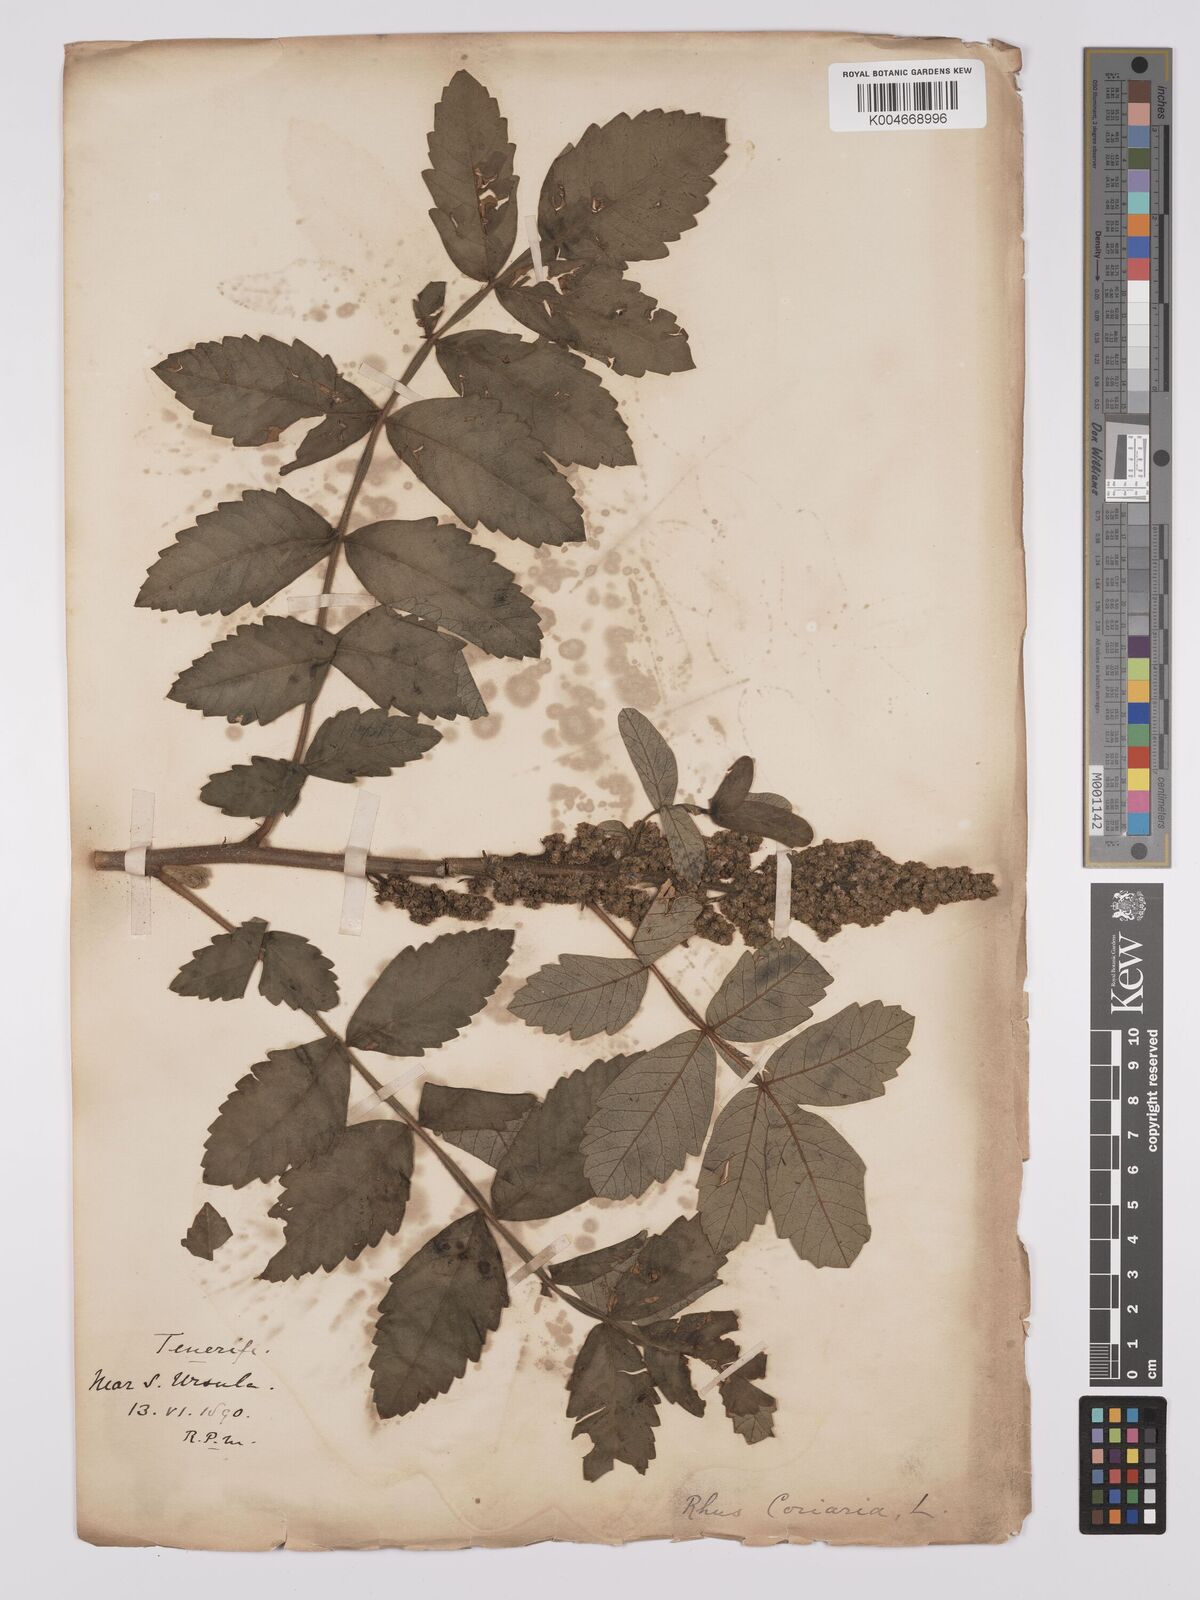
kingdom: Plantae
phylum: Tracheophyta
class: Magnoliopsida
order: Sapindales
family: Anacardiaceae
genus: Rhus
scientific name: Rhus coriaria
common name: Tanner's sumach
